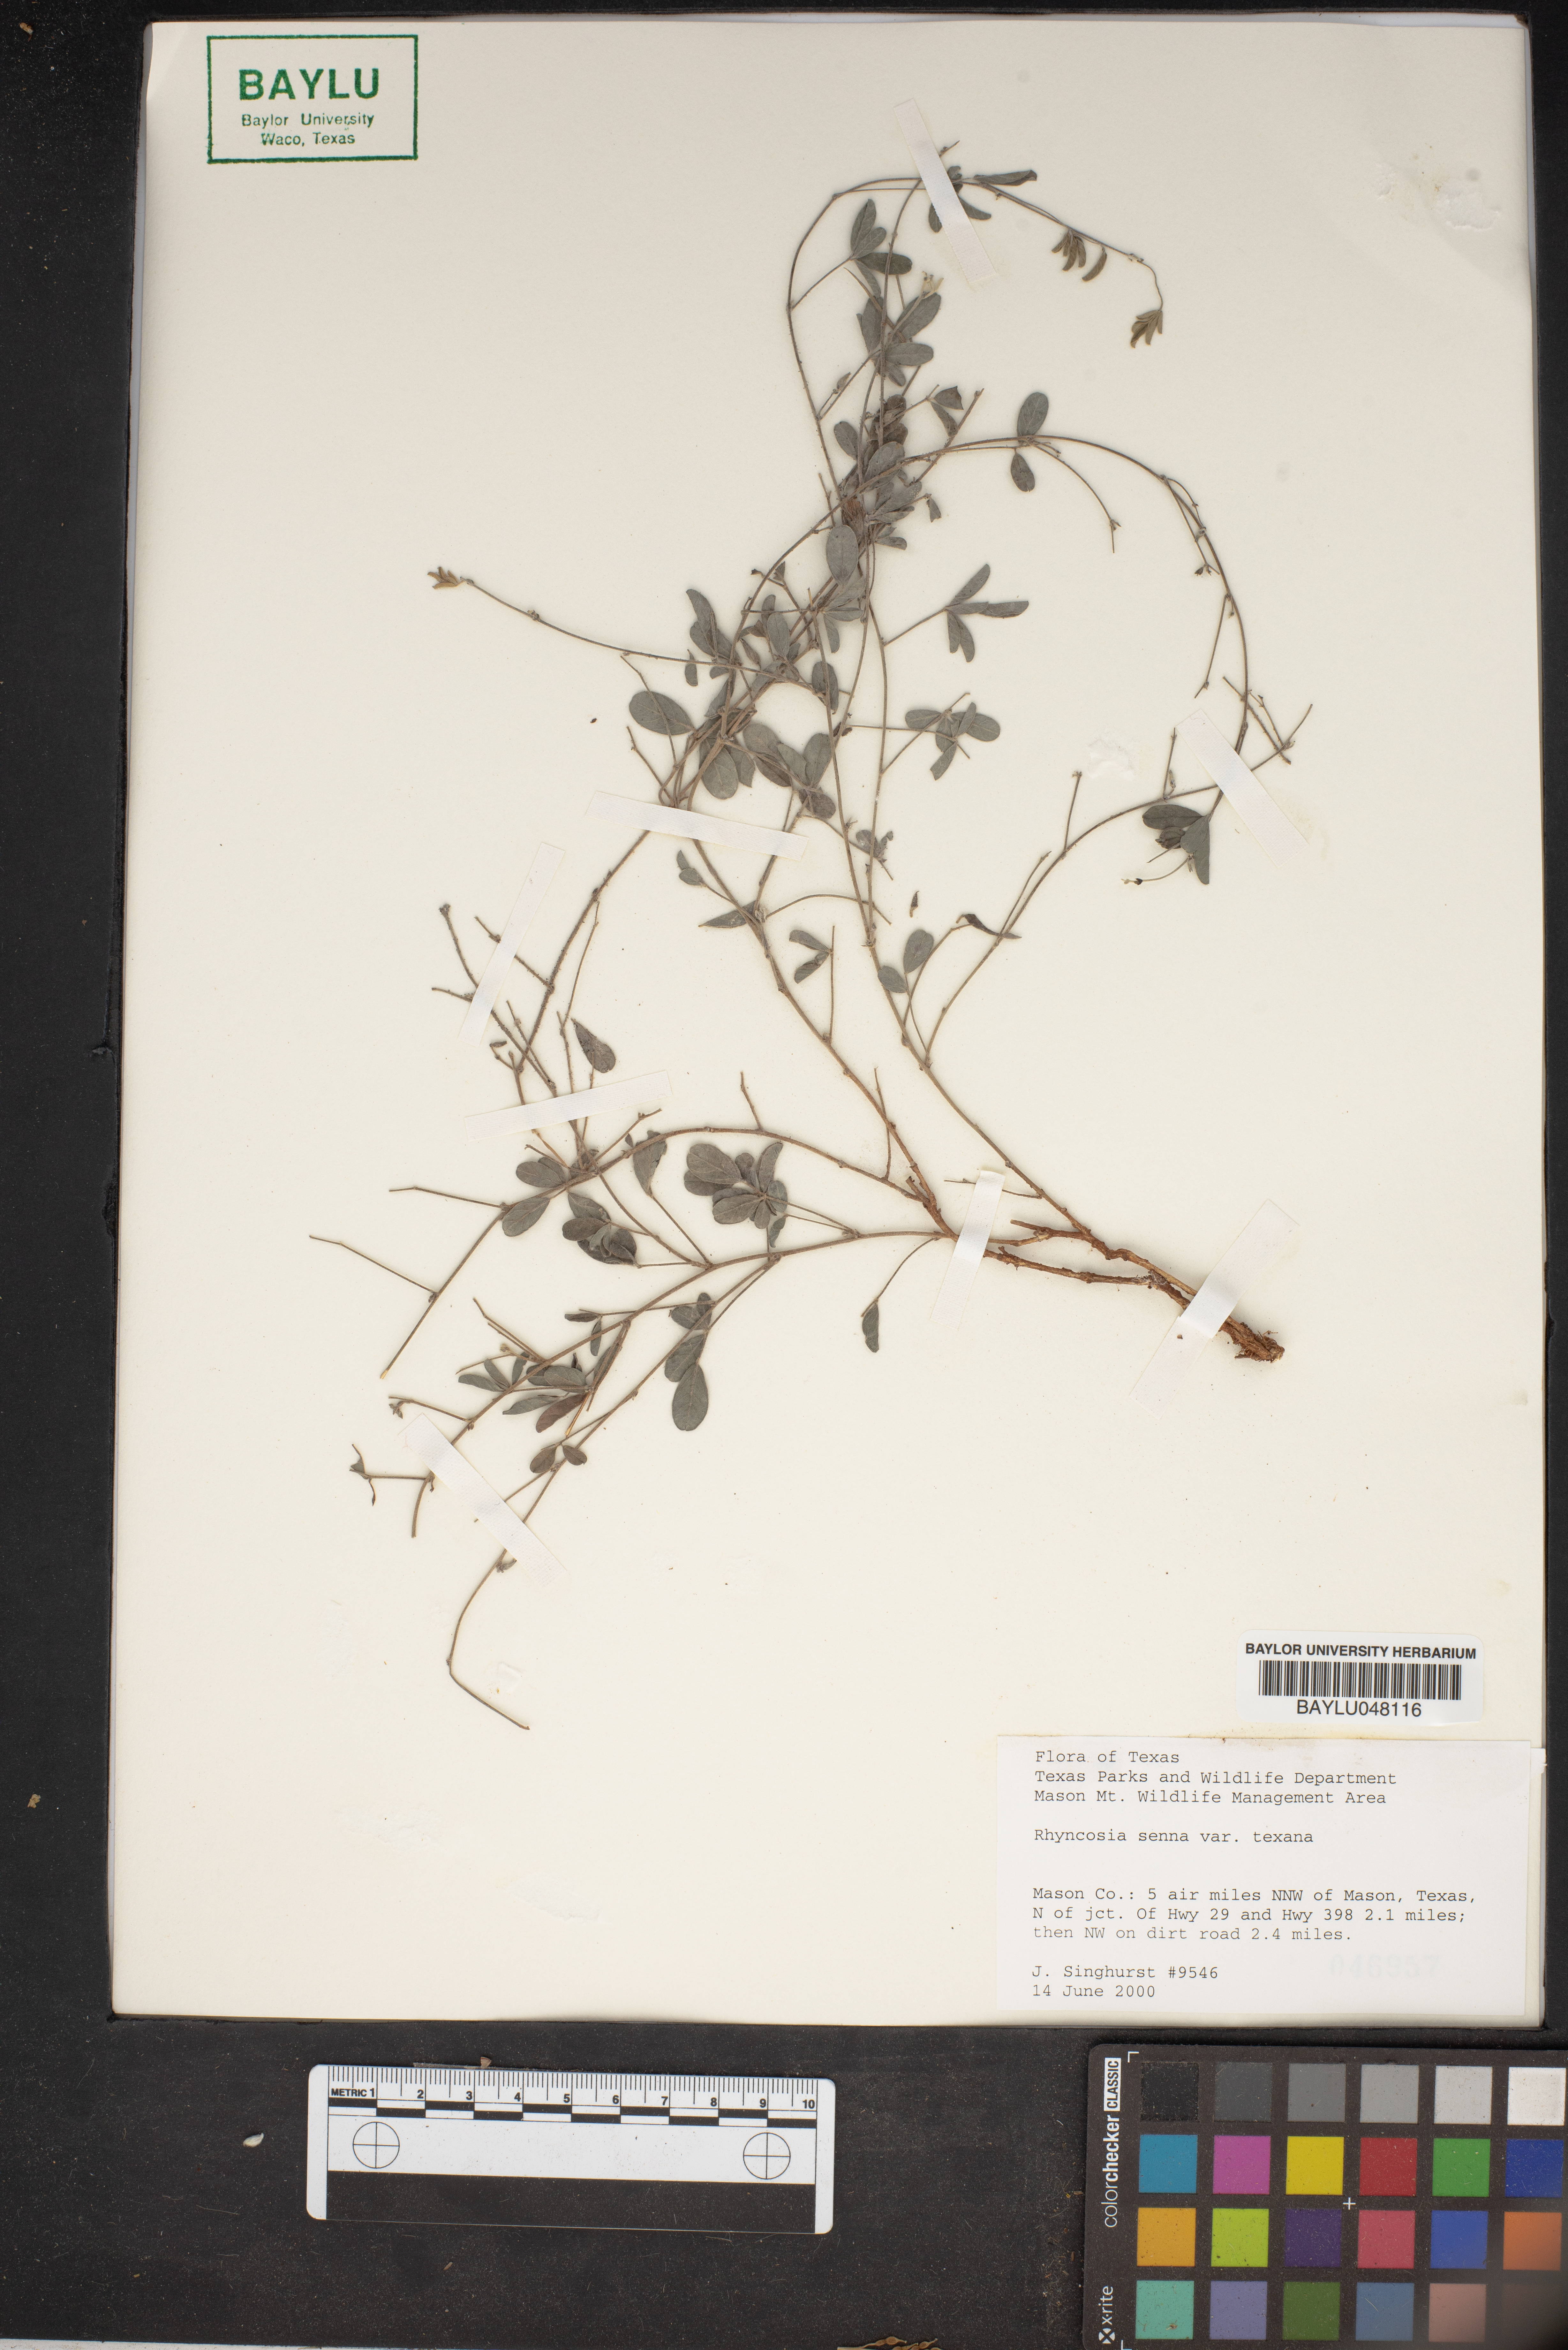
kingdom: Plantae
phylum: Tracheophyta
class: Magnoliopsida
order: Fabales
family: Fabaceae
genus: Rhynchosia
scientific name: Rhynchosia senna
